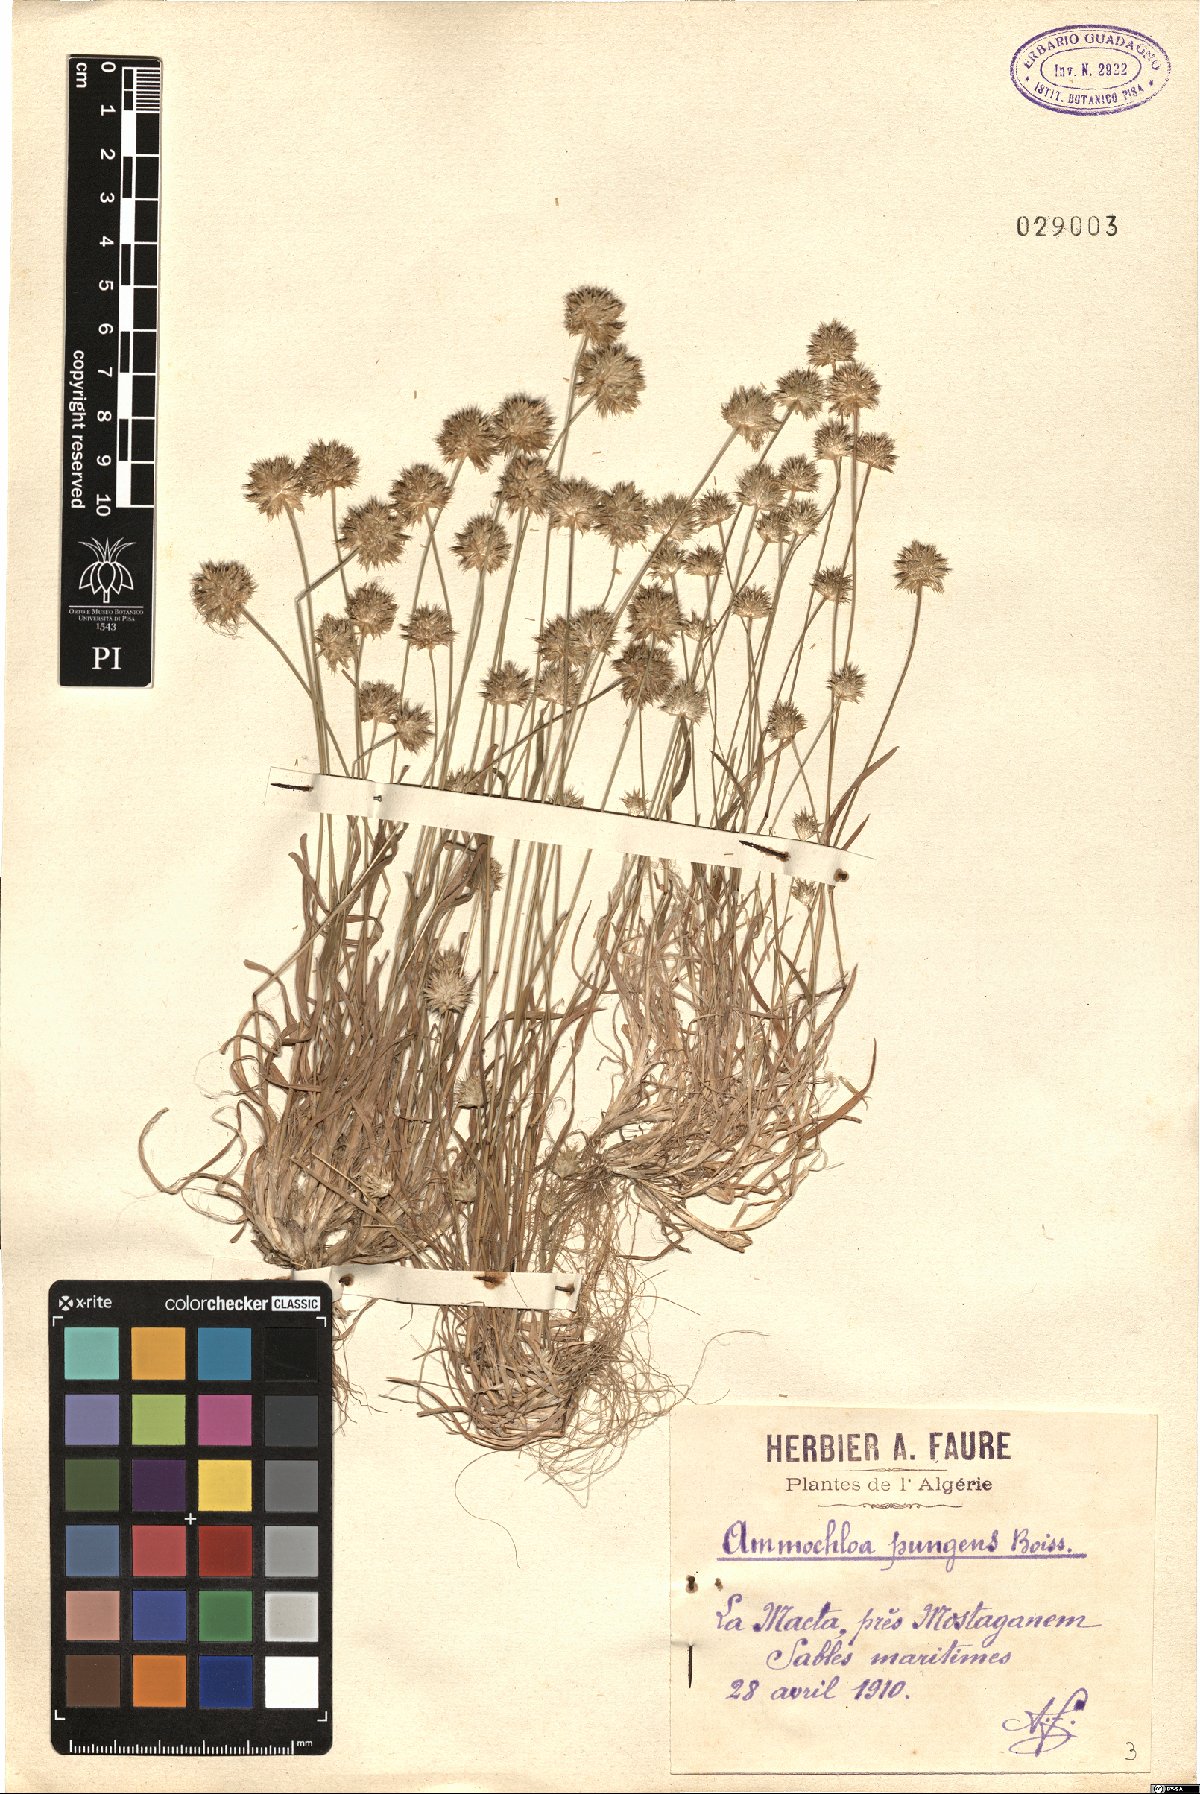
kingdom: Plantae
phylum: Tracheophyta
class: Liliopsida
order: Poales
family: Poaceae
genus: Ammochloa
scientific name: Ammochloa pungens
